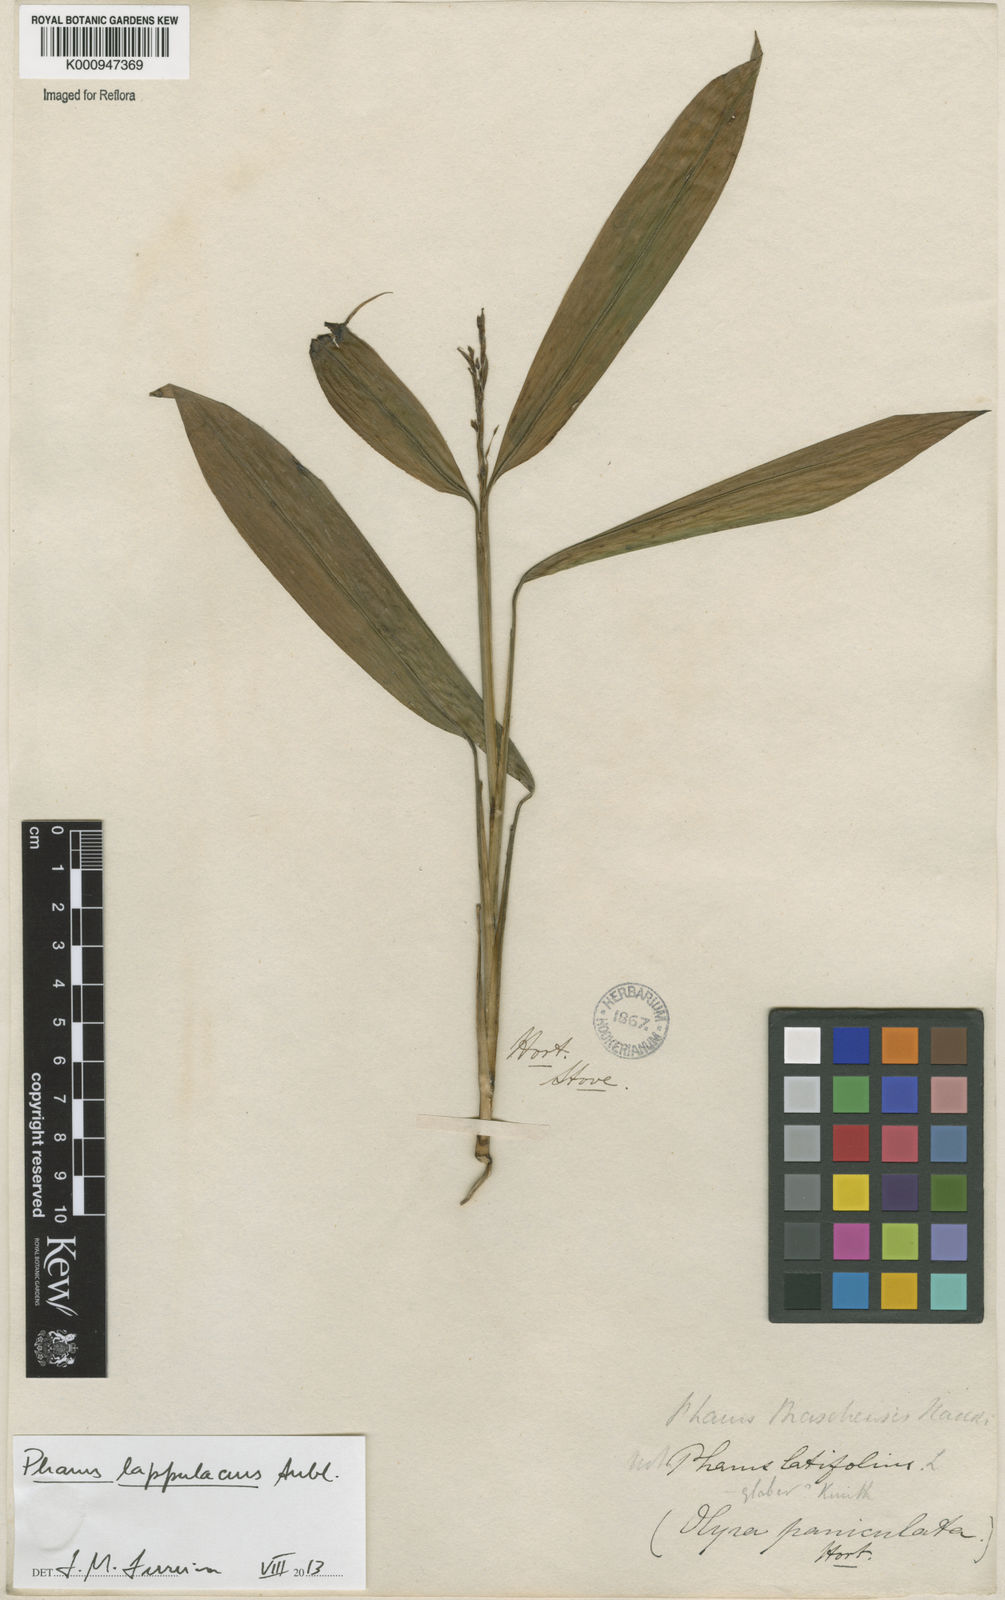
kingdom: Plantae
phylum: Tracheophyta
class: Liliopsida
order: Poales
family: Poaceae
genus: Pharus
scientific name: Pharus lappulaceus
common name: Creeping leafstalk grass
